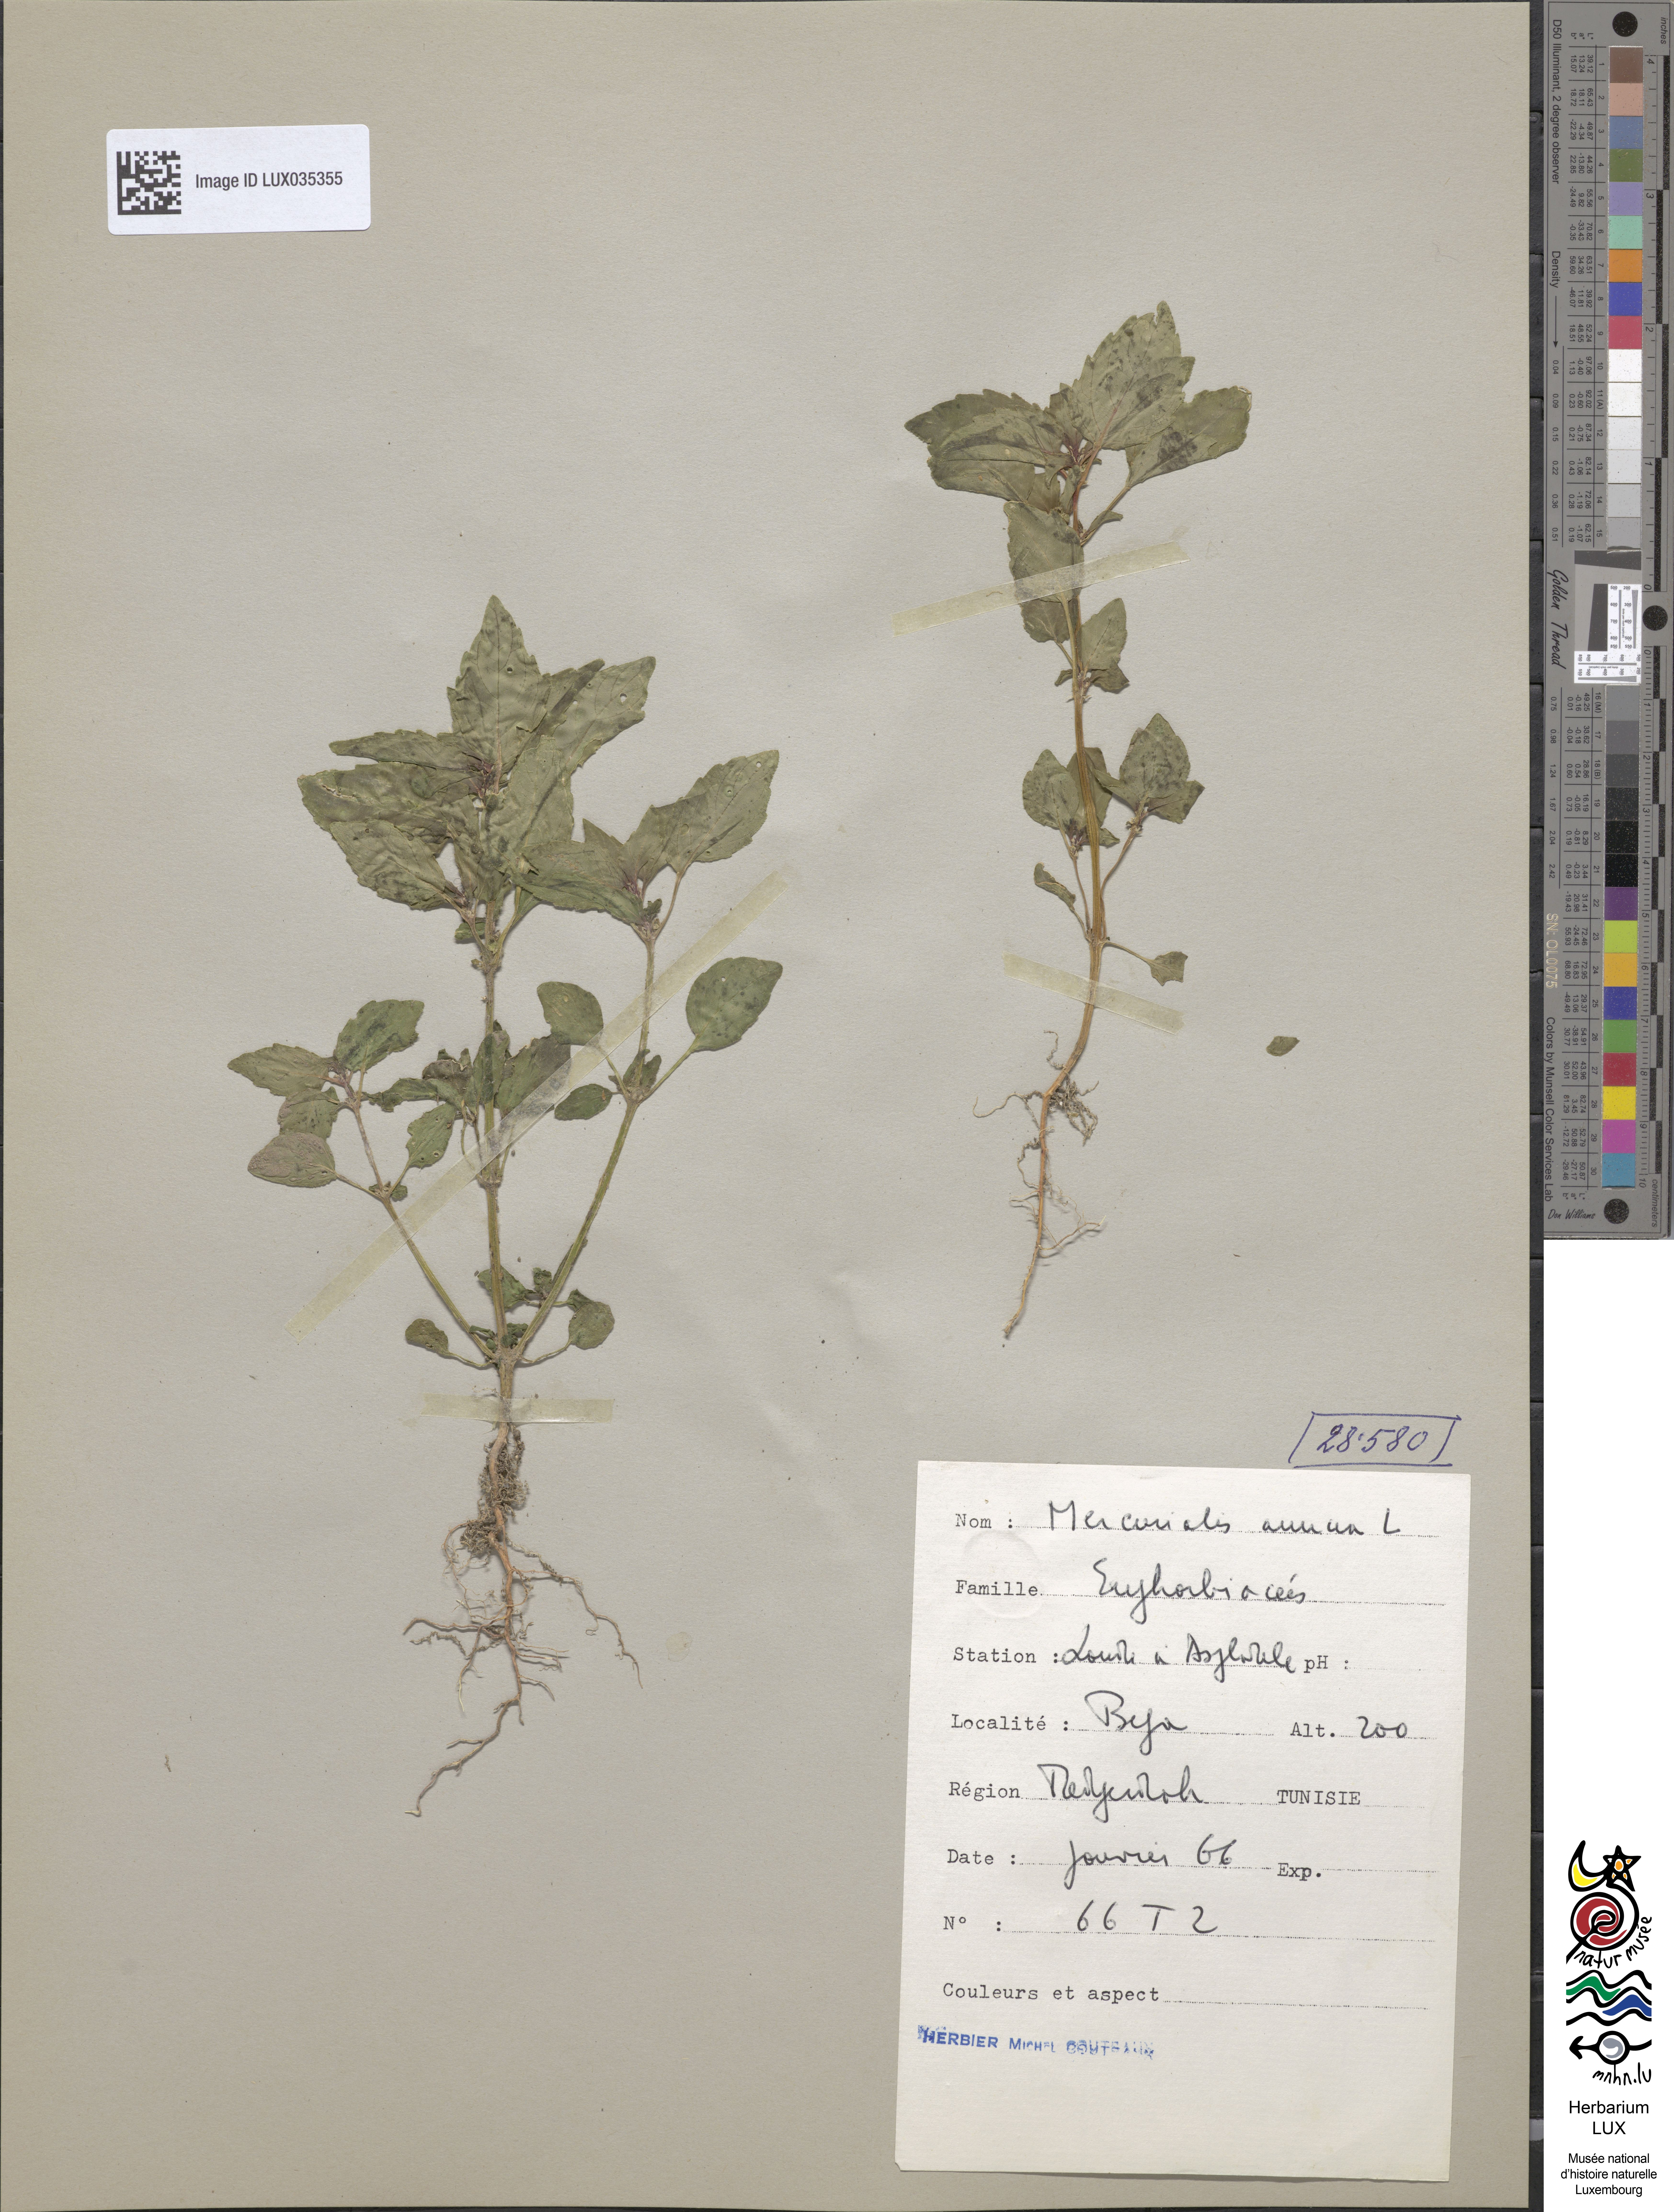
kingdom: Plantae
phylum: Tracheophyta
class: Magnoliopsida
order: Malpighiales
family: Euphorbiaceae
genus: Mercurialis
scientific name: Mercurialis annua
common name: Annual mercury
